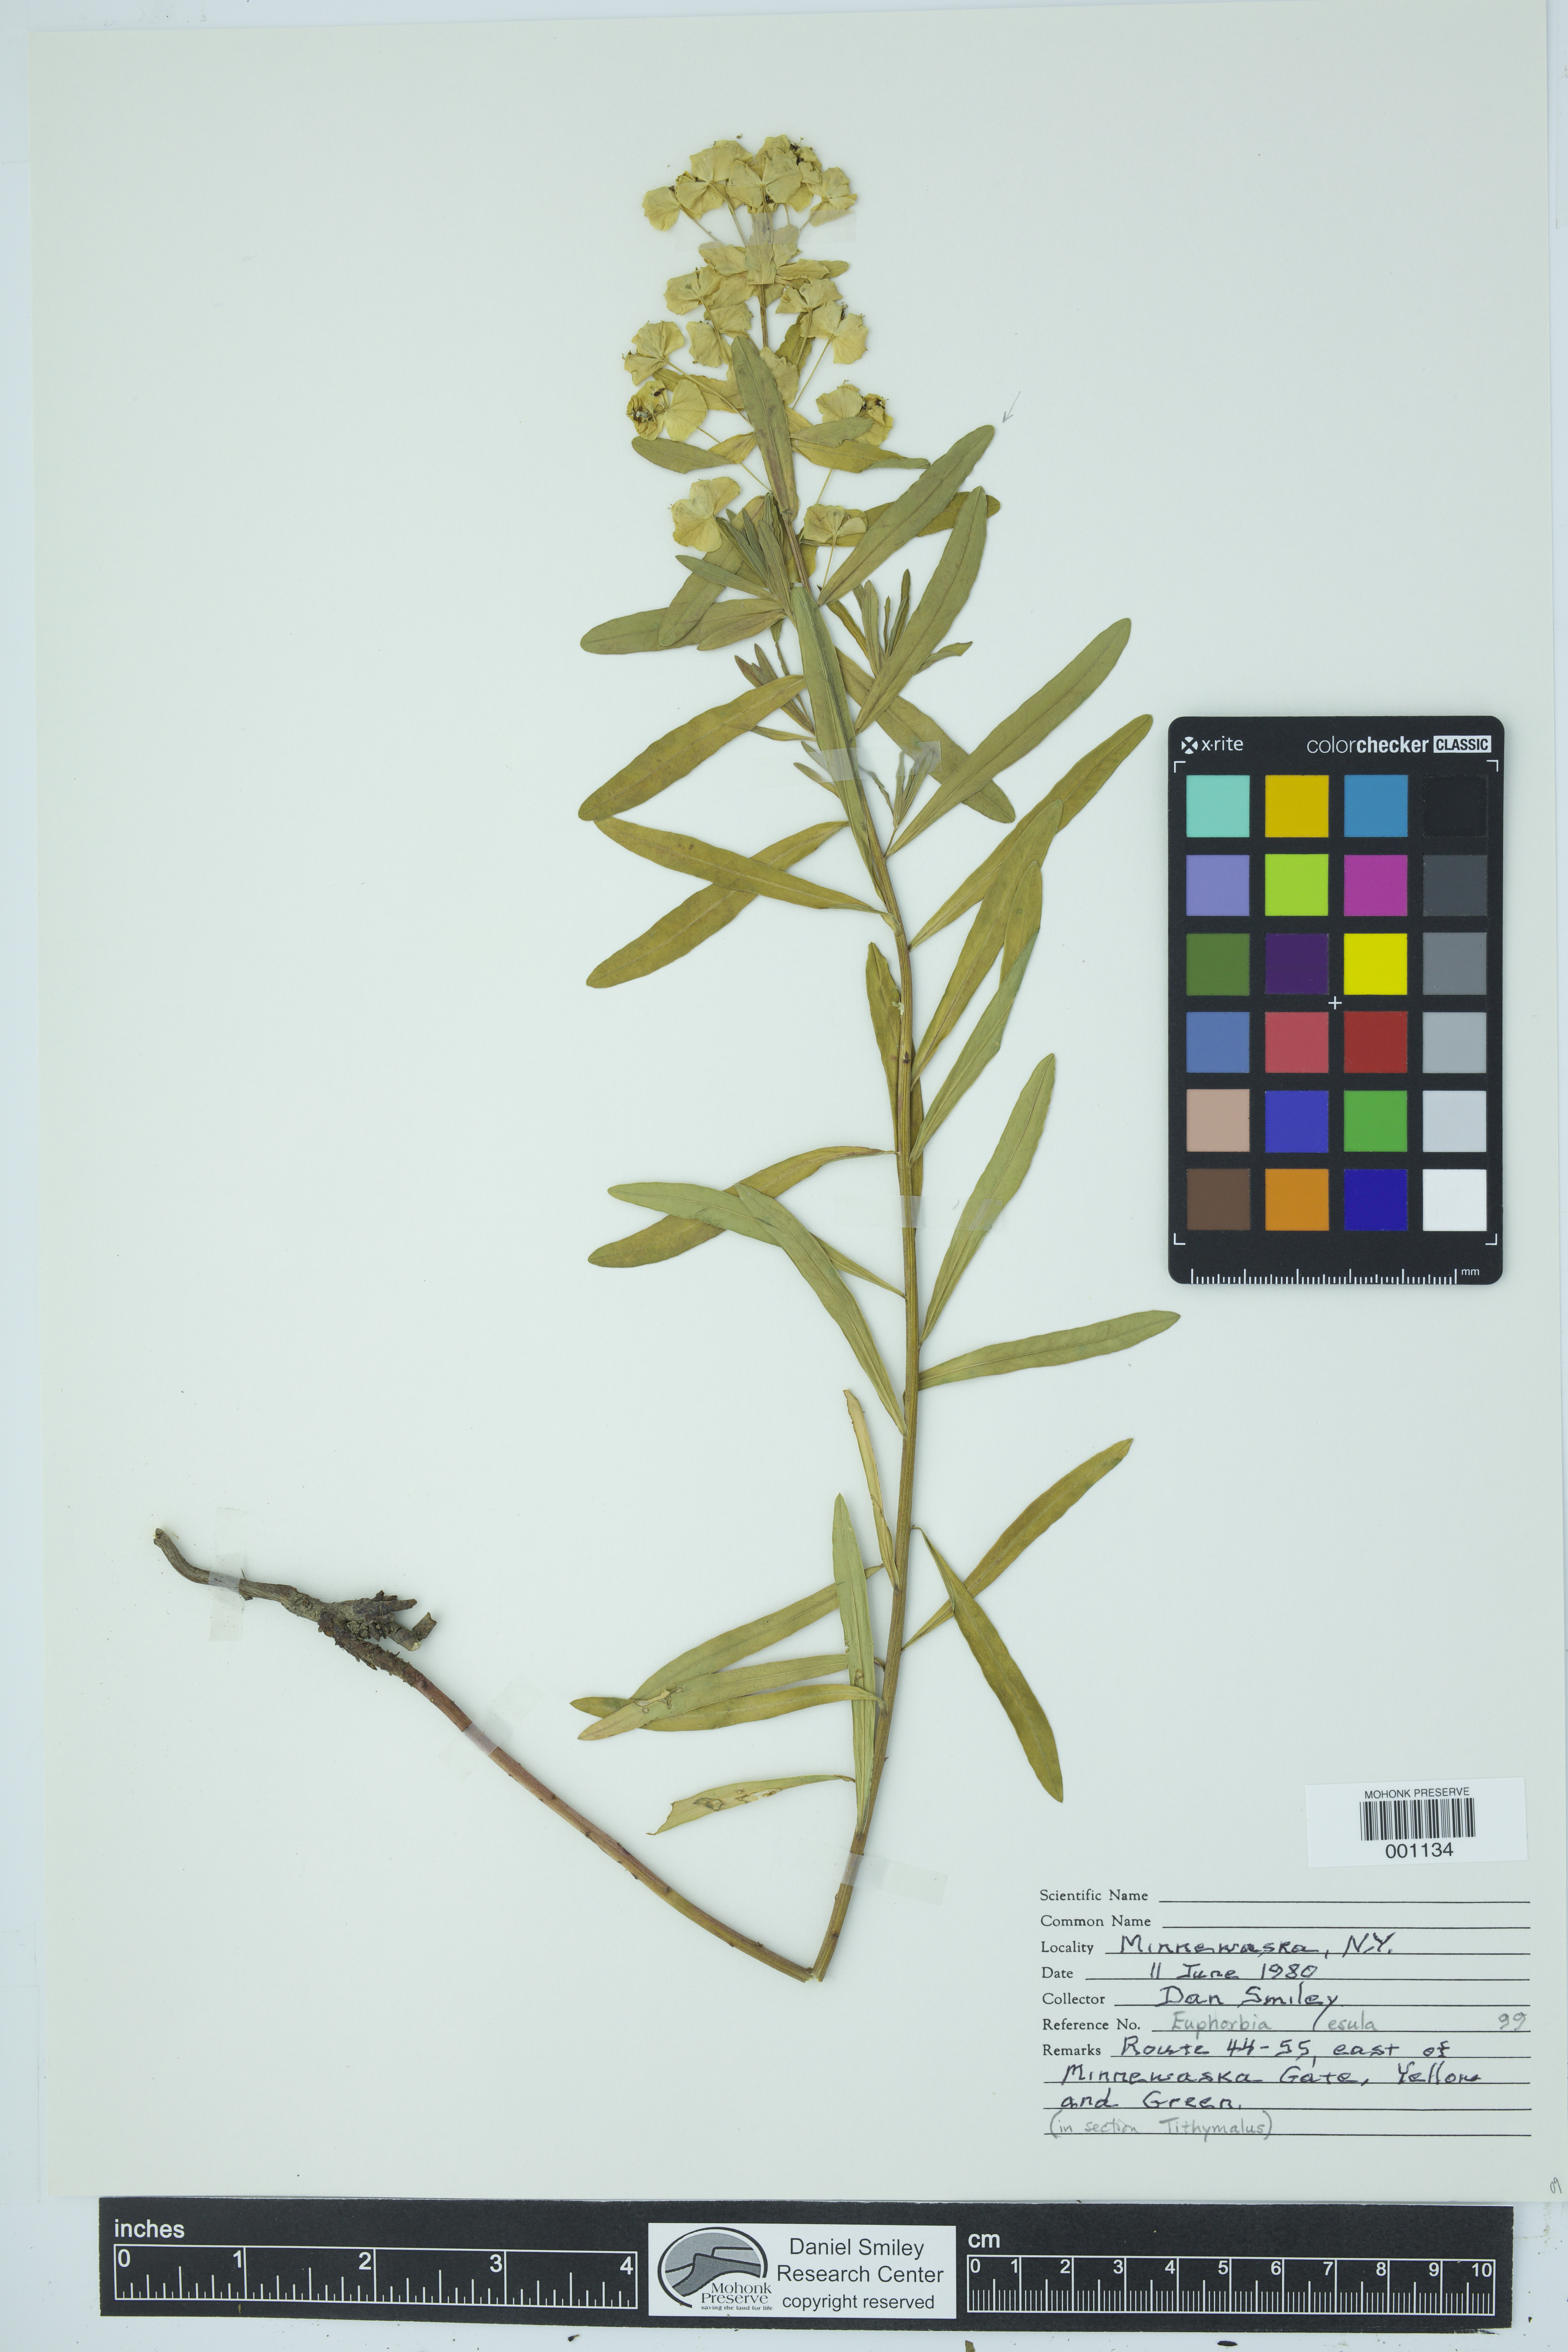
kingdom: Plantae
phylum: Tracheophyta
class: Magnoliopsida
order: Malpighiales
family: Euphorbiaceae
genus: Euphorbia
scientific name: Euphorbia esula
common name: Leafy spurge
